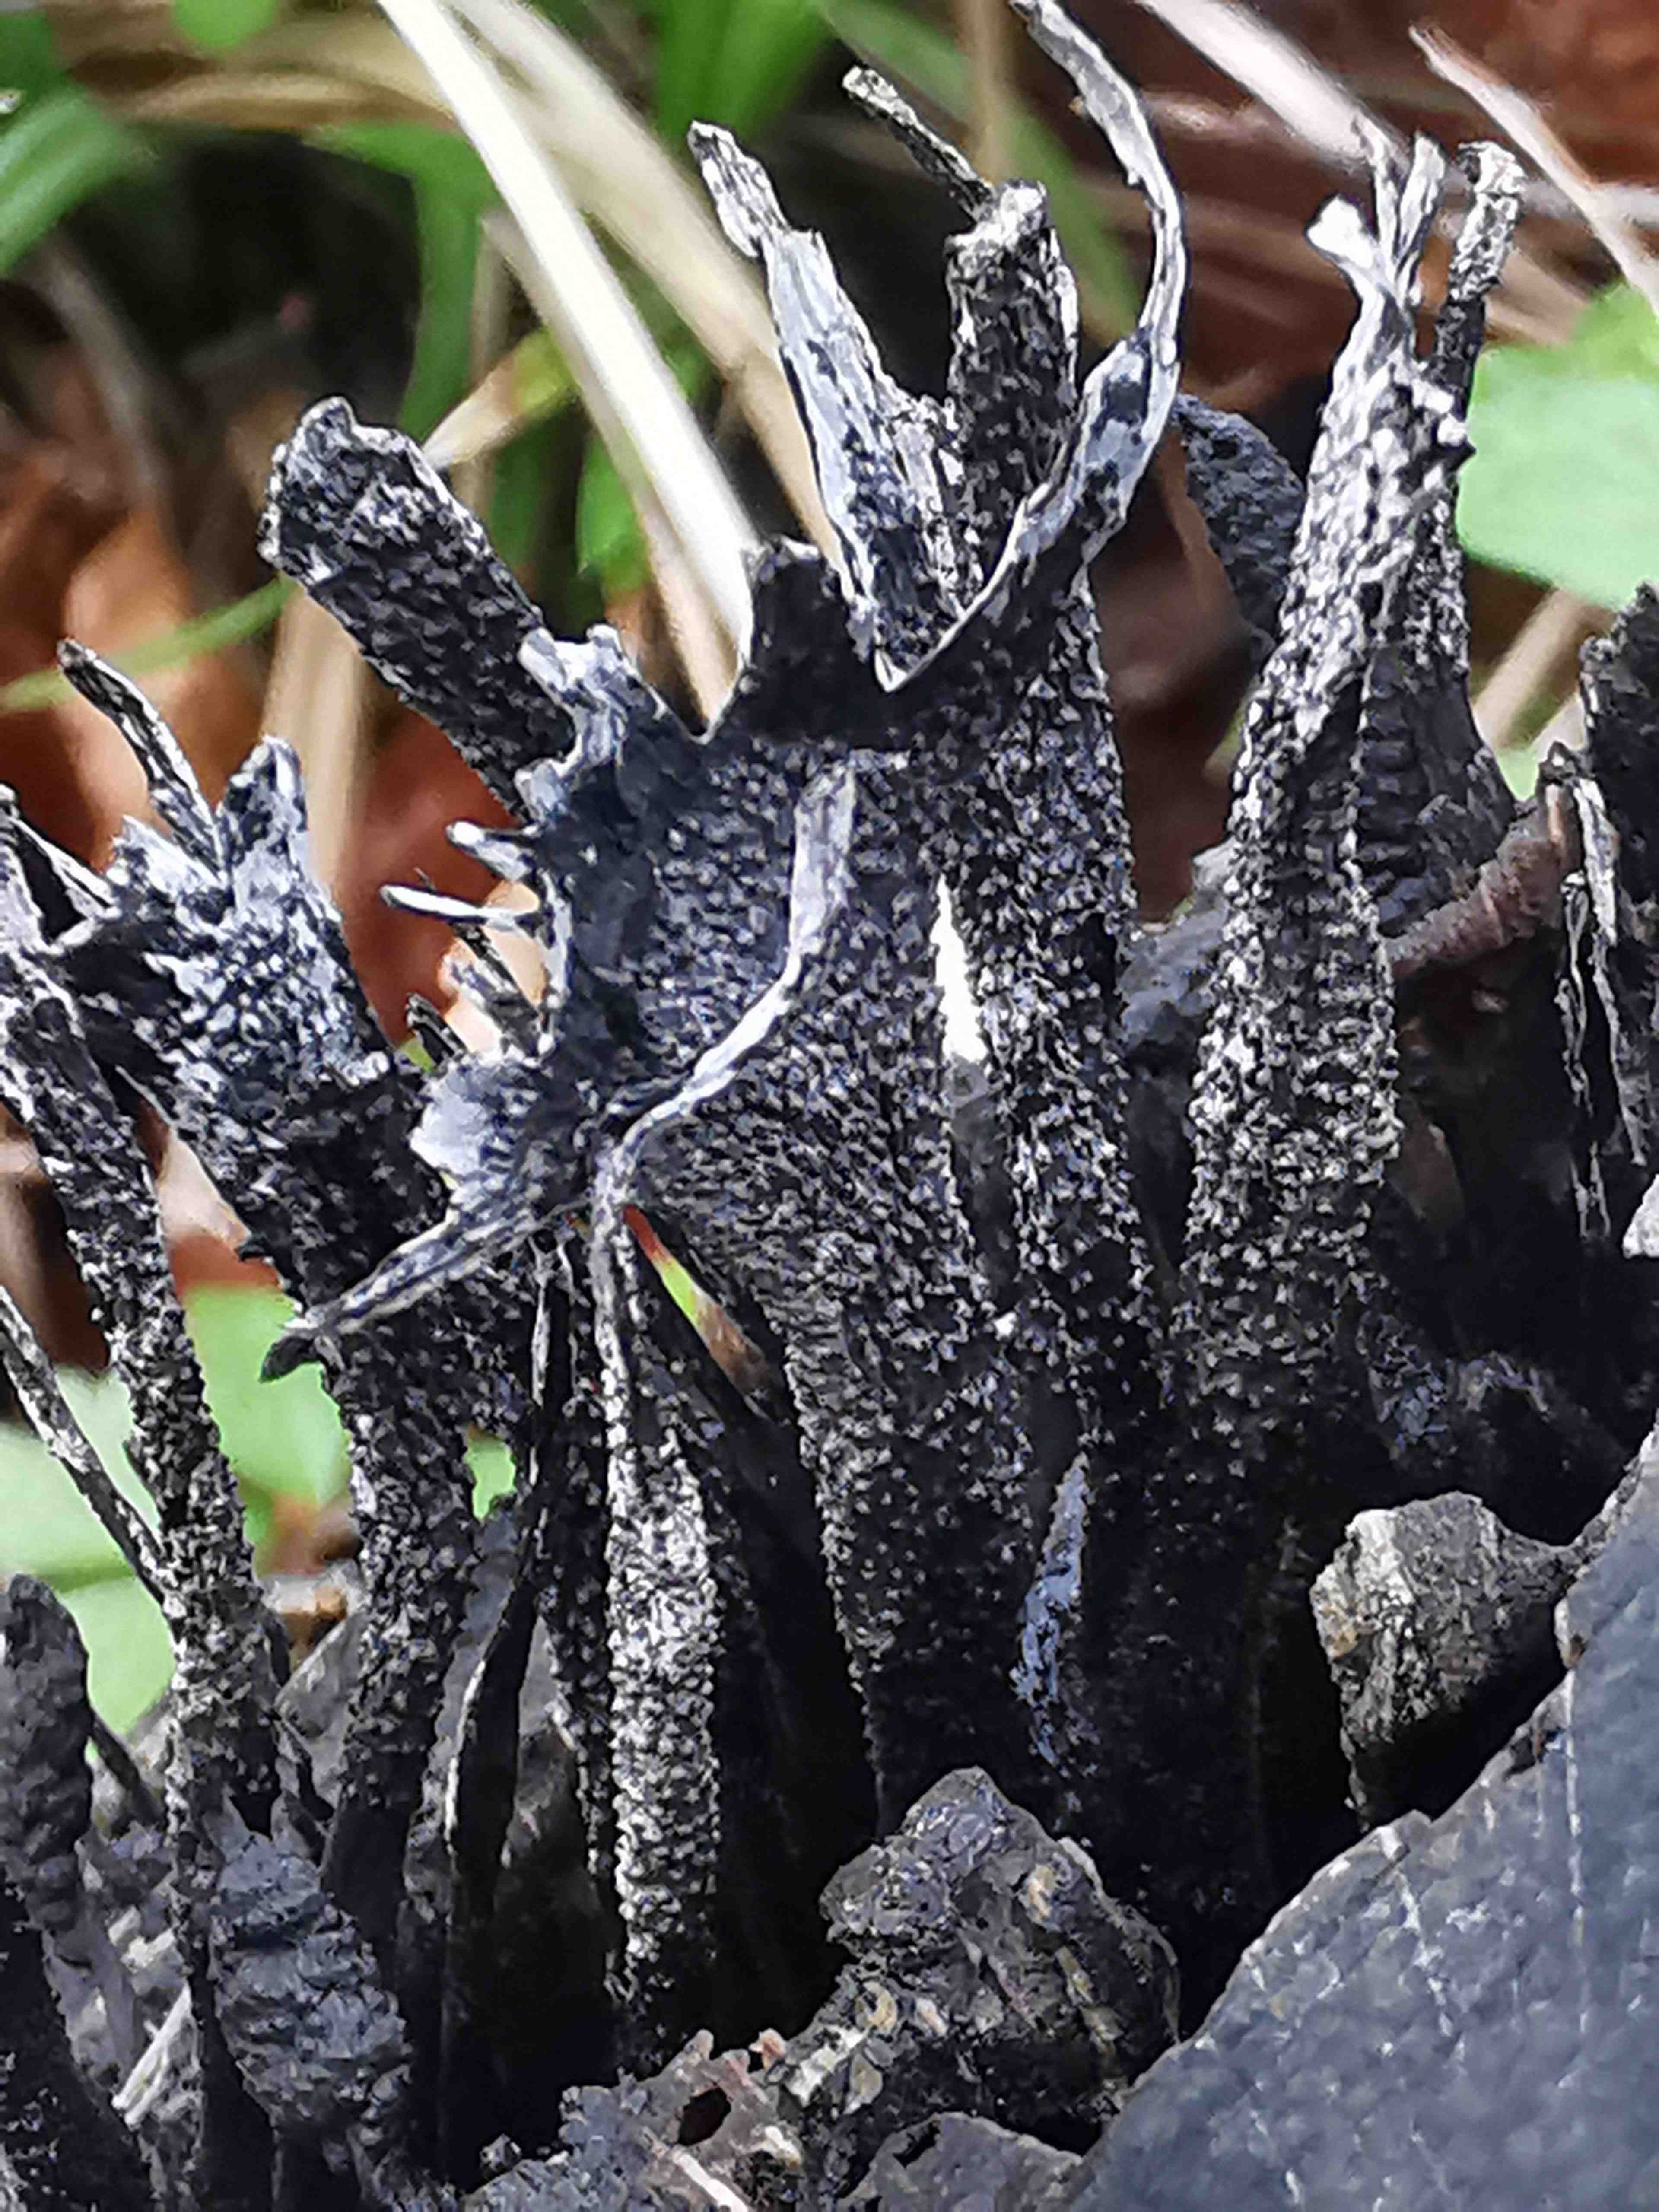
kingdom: Fungi
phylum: Ascomycota
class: Sordariomycetes
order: Xylariales
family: Xylariaceae
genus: Xylaria
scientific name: Xylaria hypoxylon
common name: grenet stødsvamp
